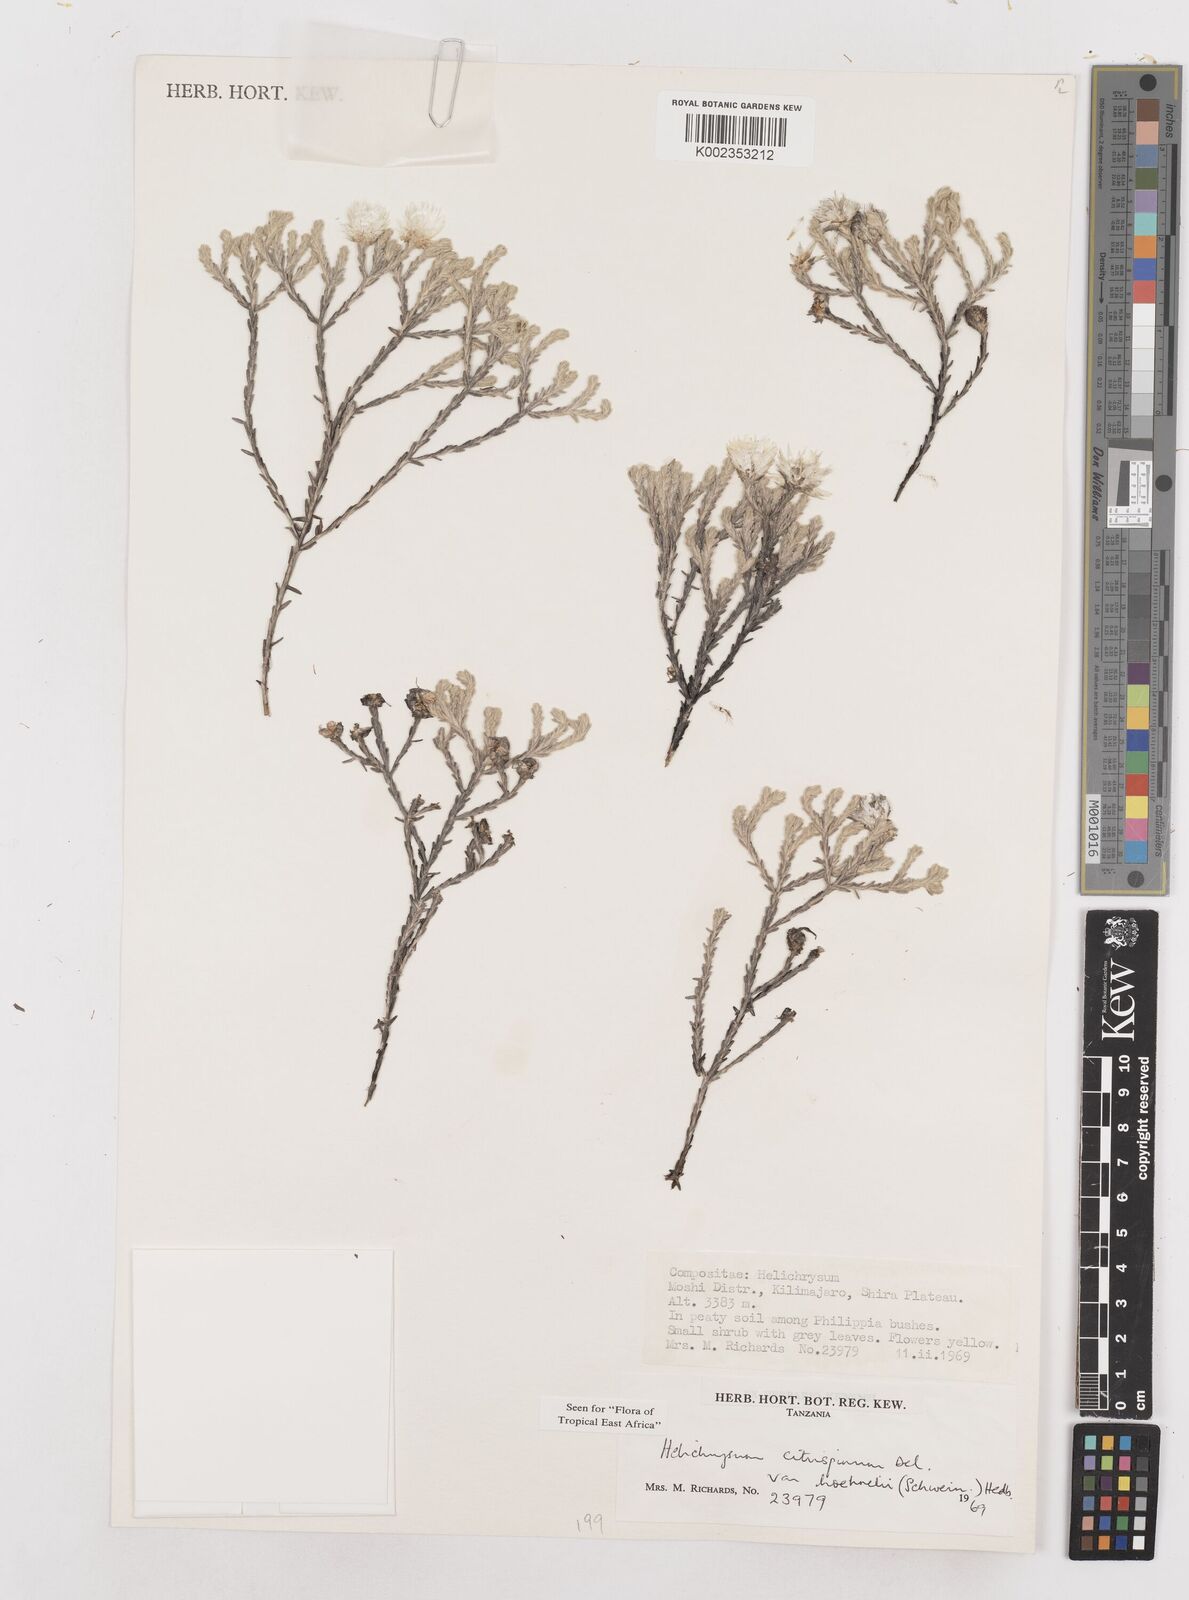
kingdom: Plantae
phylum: Tracheophyta
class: Magnoliopsida
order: Asterales
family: Asteraceae
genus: Helichrysum
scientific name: Helichrysum citrispinum
